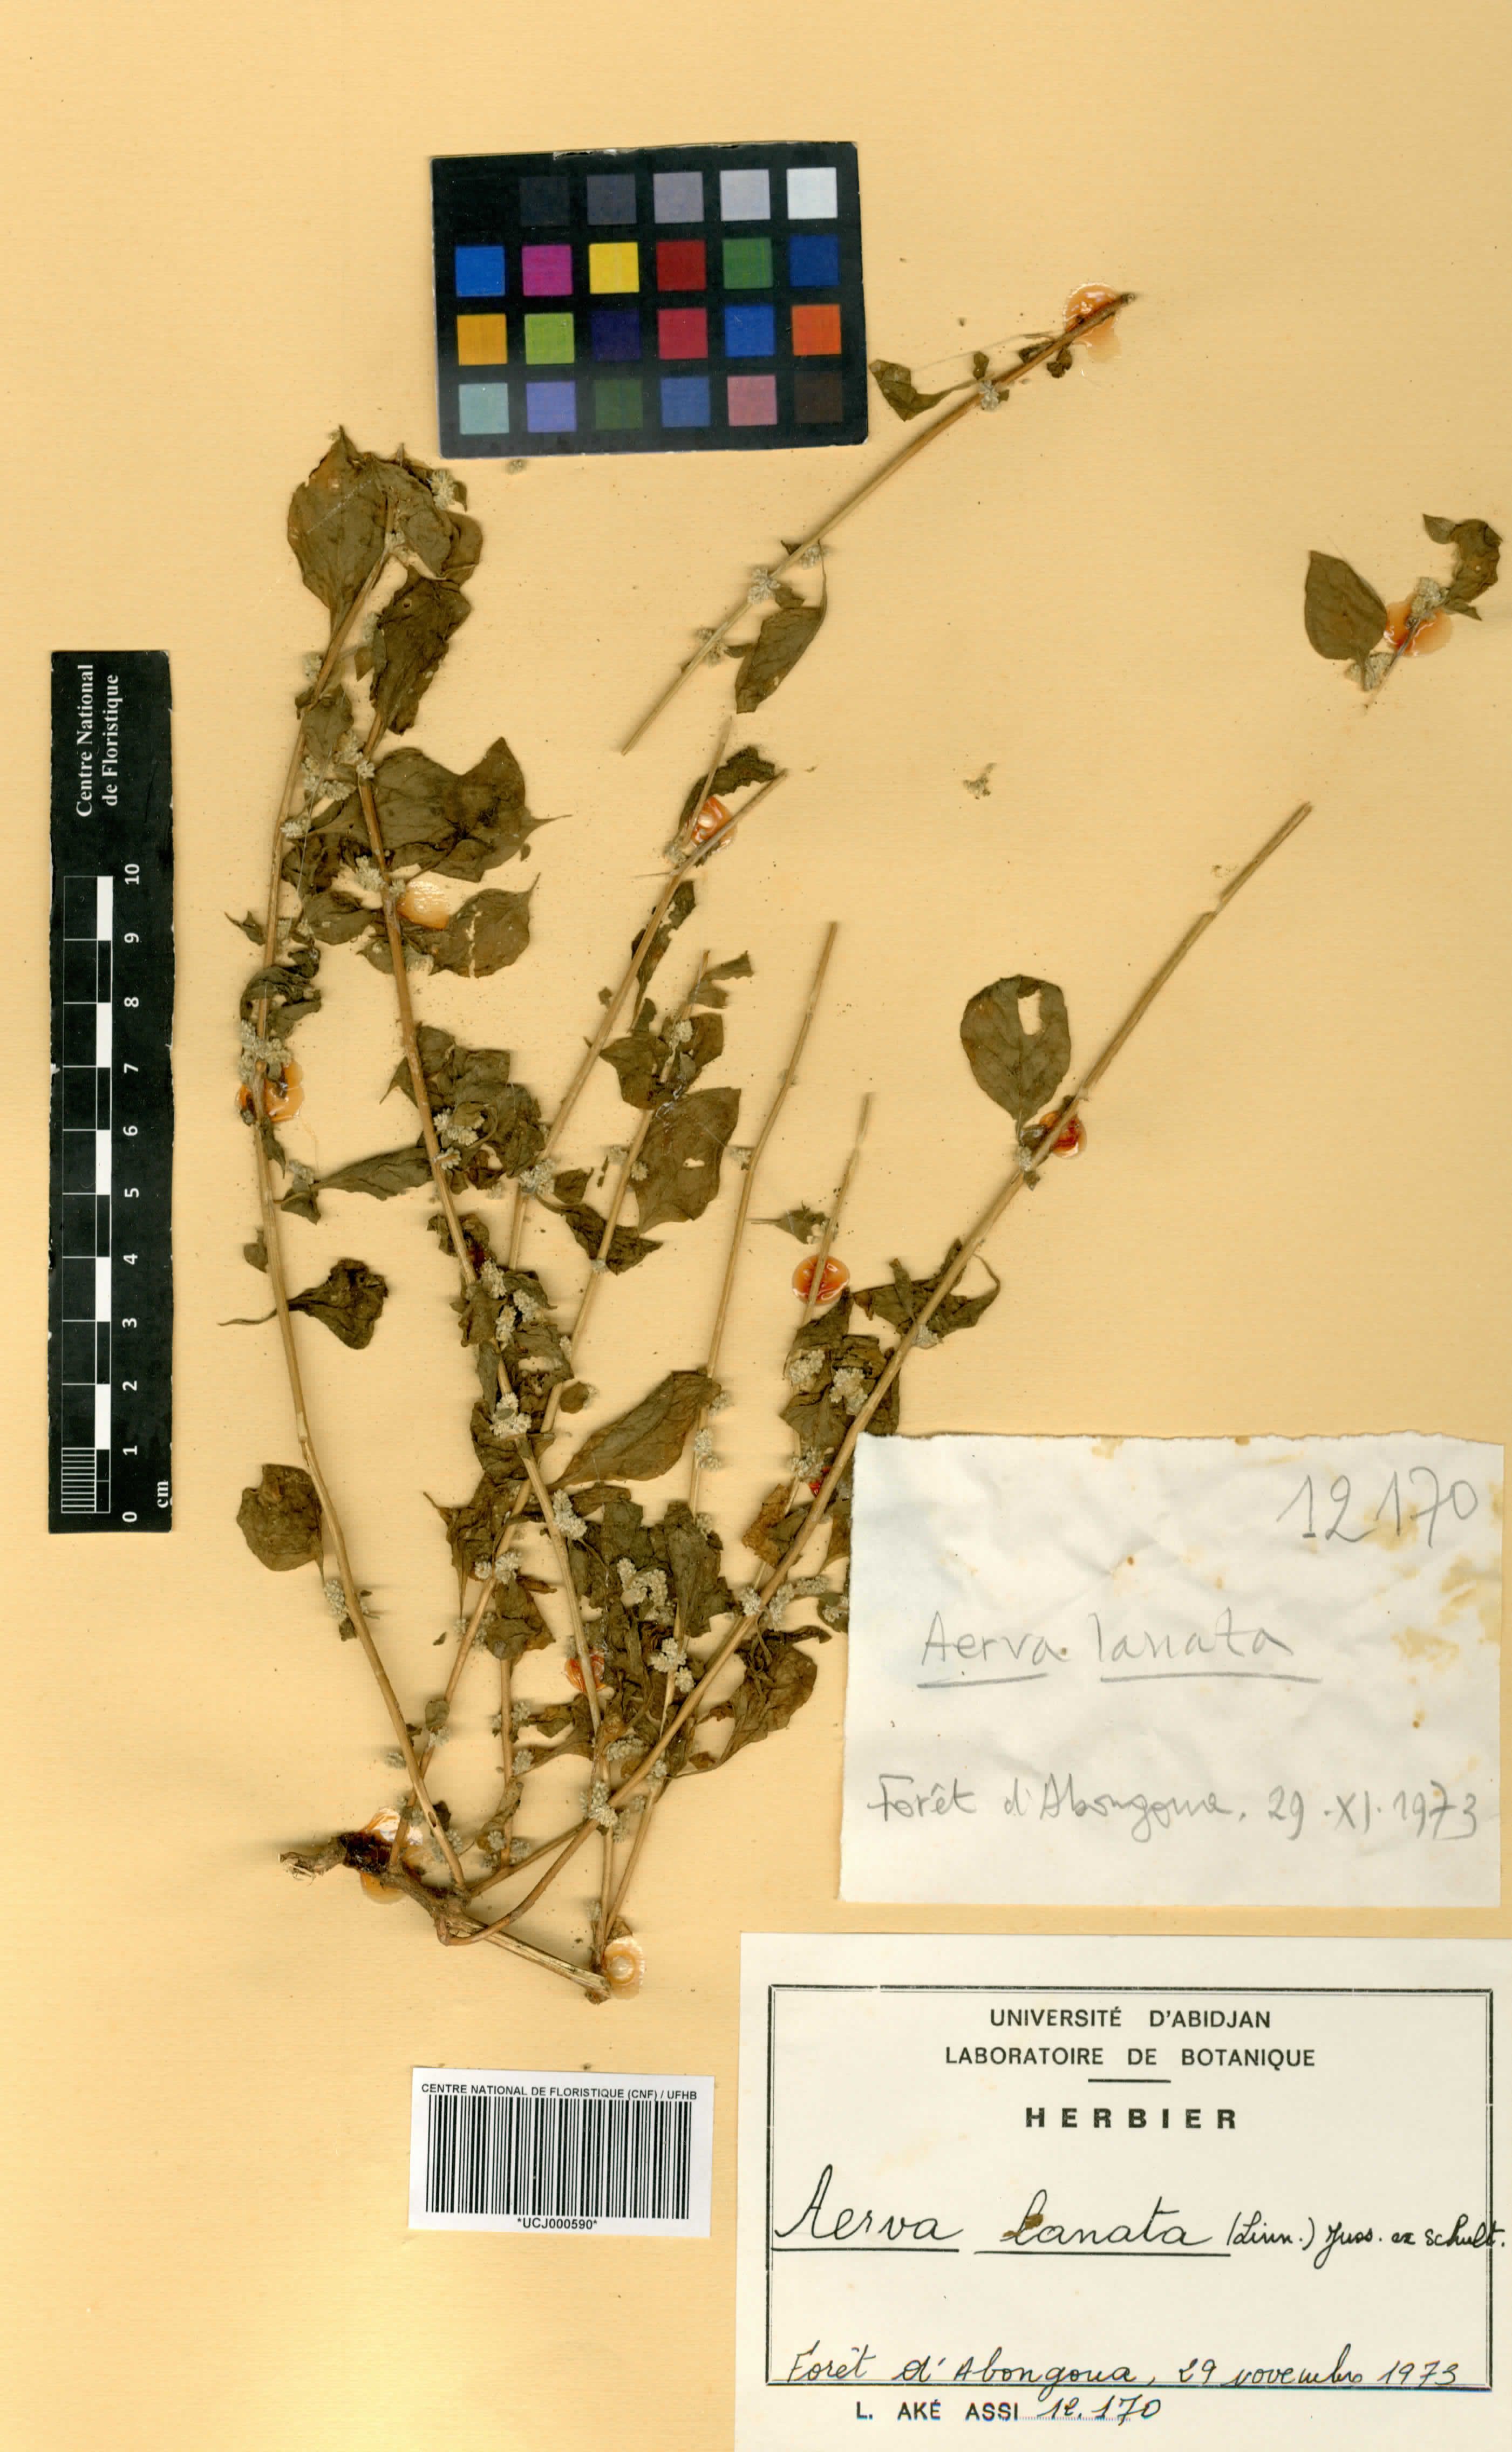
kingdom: Plantae
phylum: Tracheophyta
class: Magnoliopsida
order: Caryophyllales
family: Amaranthaceae
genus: Ouret
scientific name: Ouret lanata
